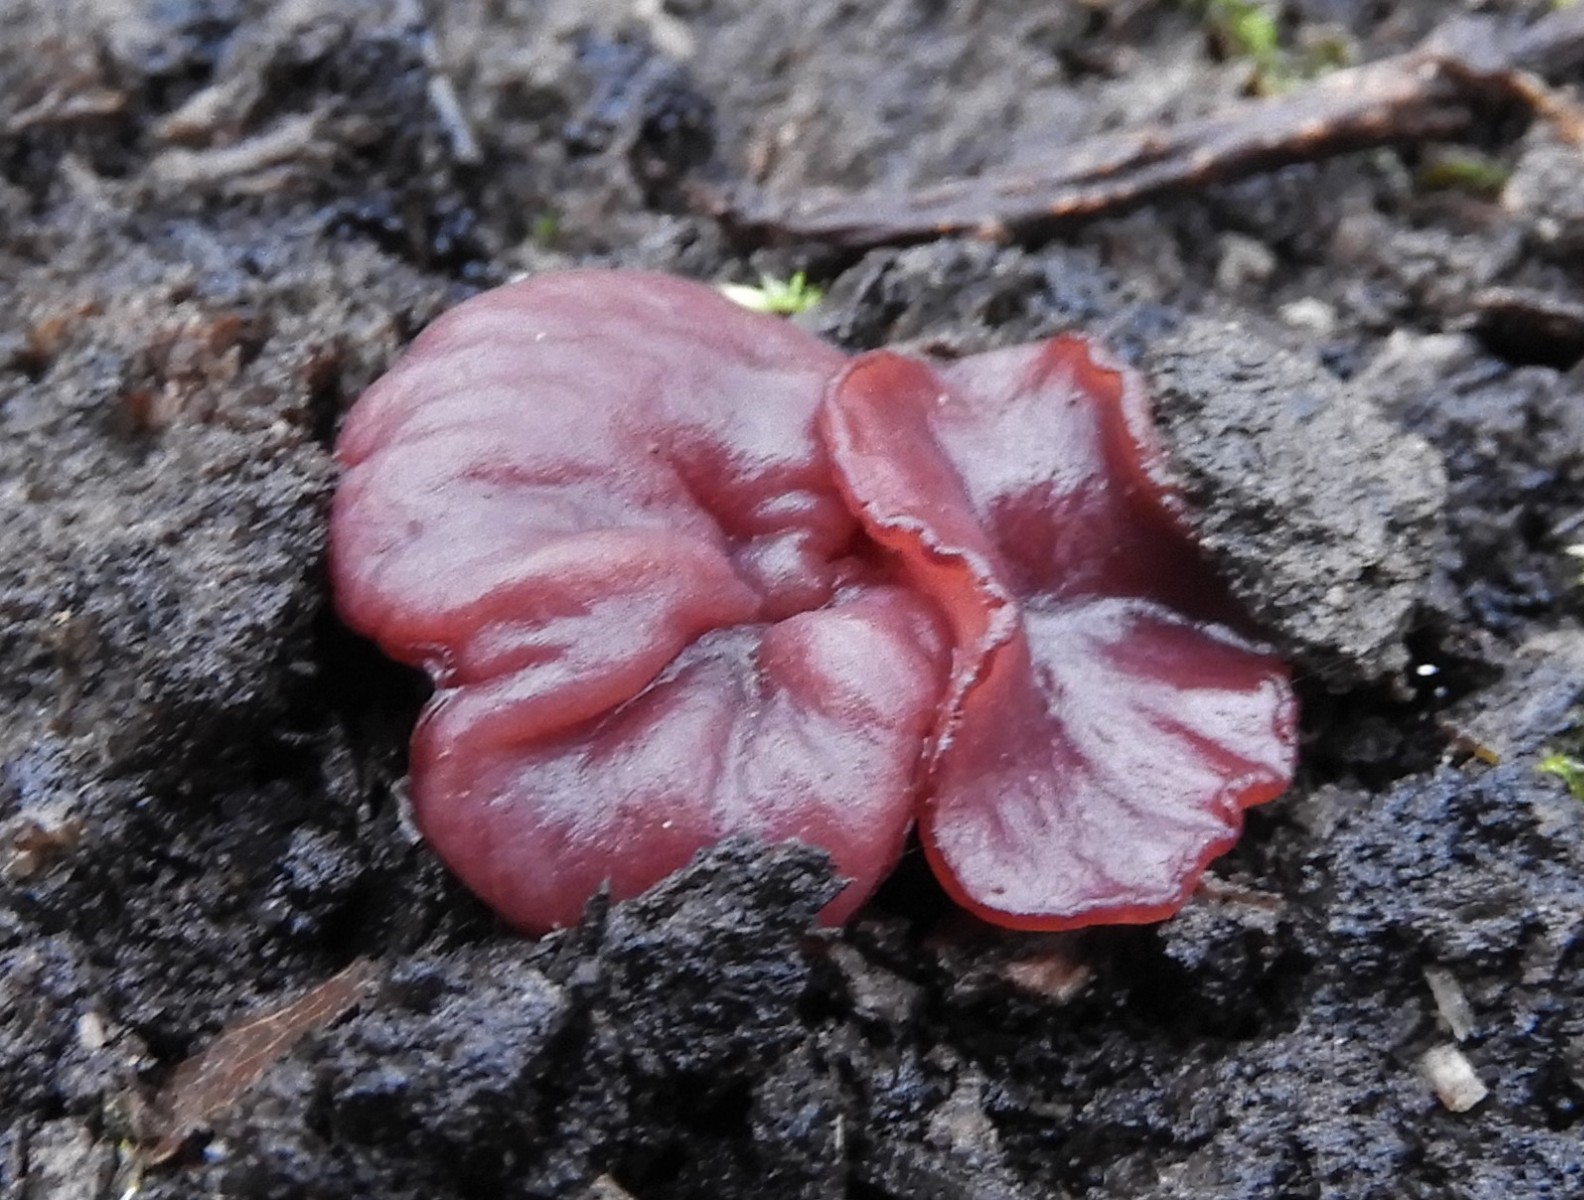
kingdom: Fungi
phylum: Ascomycota
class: Leotiomycetes
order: Helotiales
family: Gelatinodiscaceae
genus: Ascocoryne
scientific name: Ascocoryne cylichnium
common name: stor sejskive
